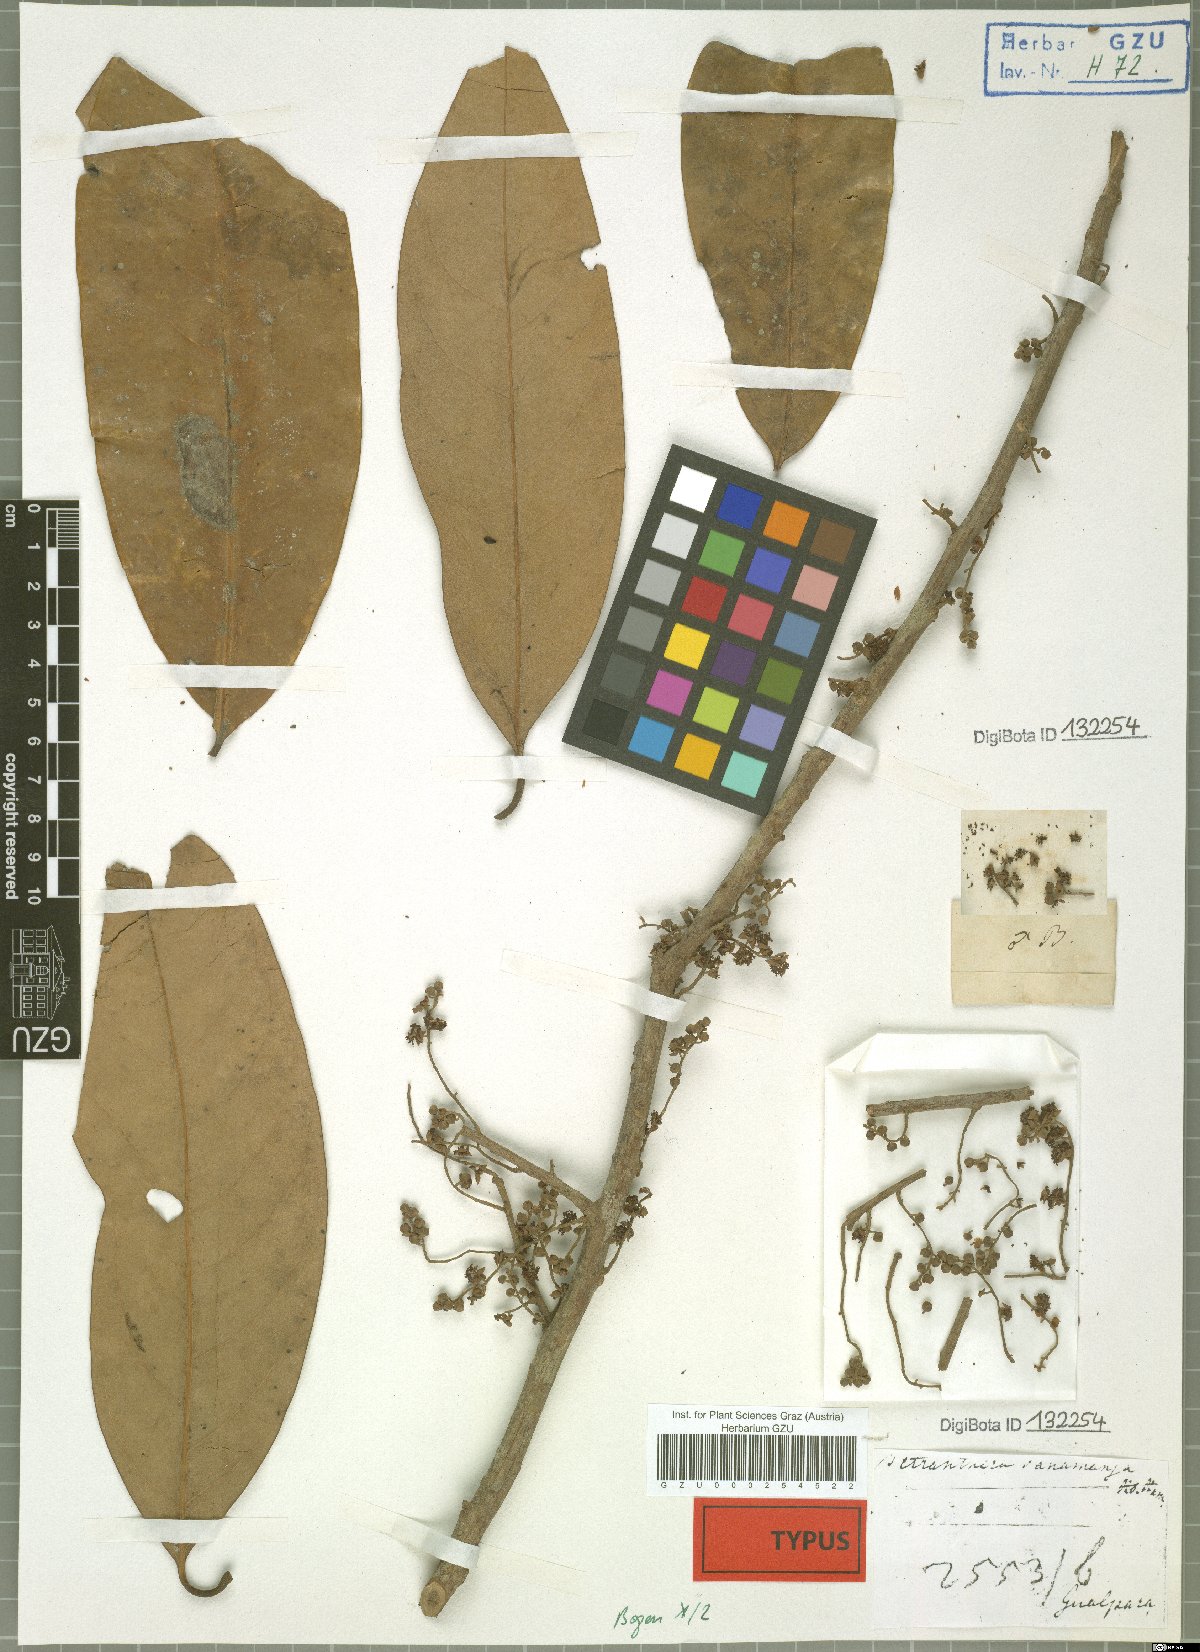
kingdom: Plantae
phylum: Tracheophyta
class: Magnoliopsida
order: Laurales
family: Lauraceae
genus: Litsea
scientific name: Litsea panamanja
